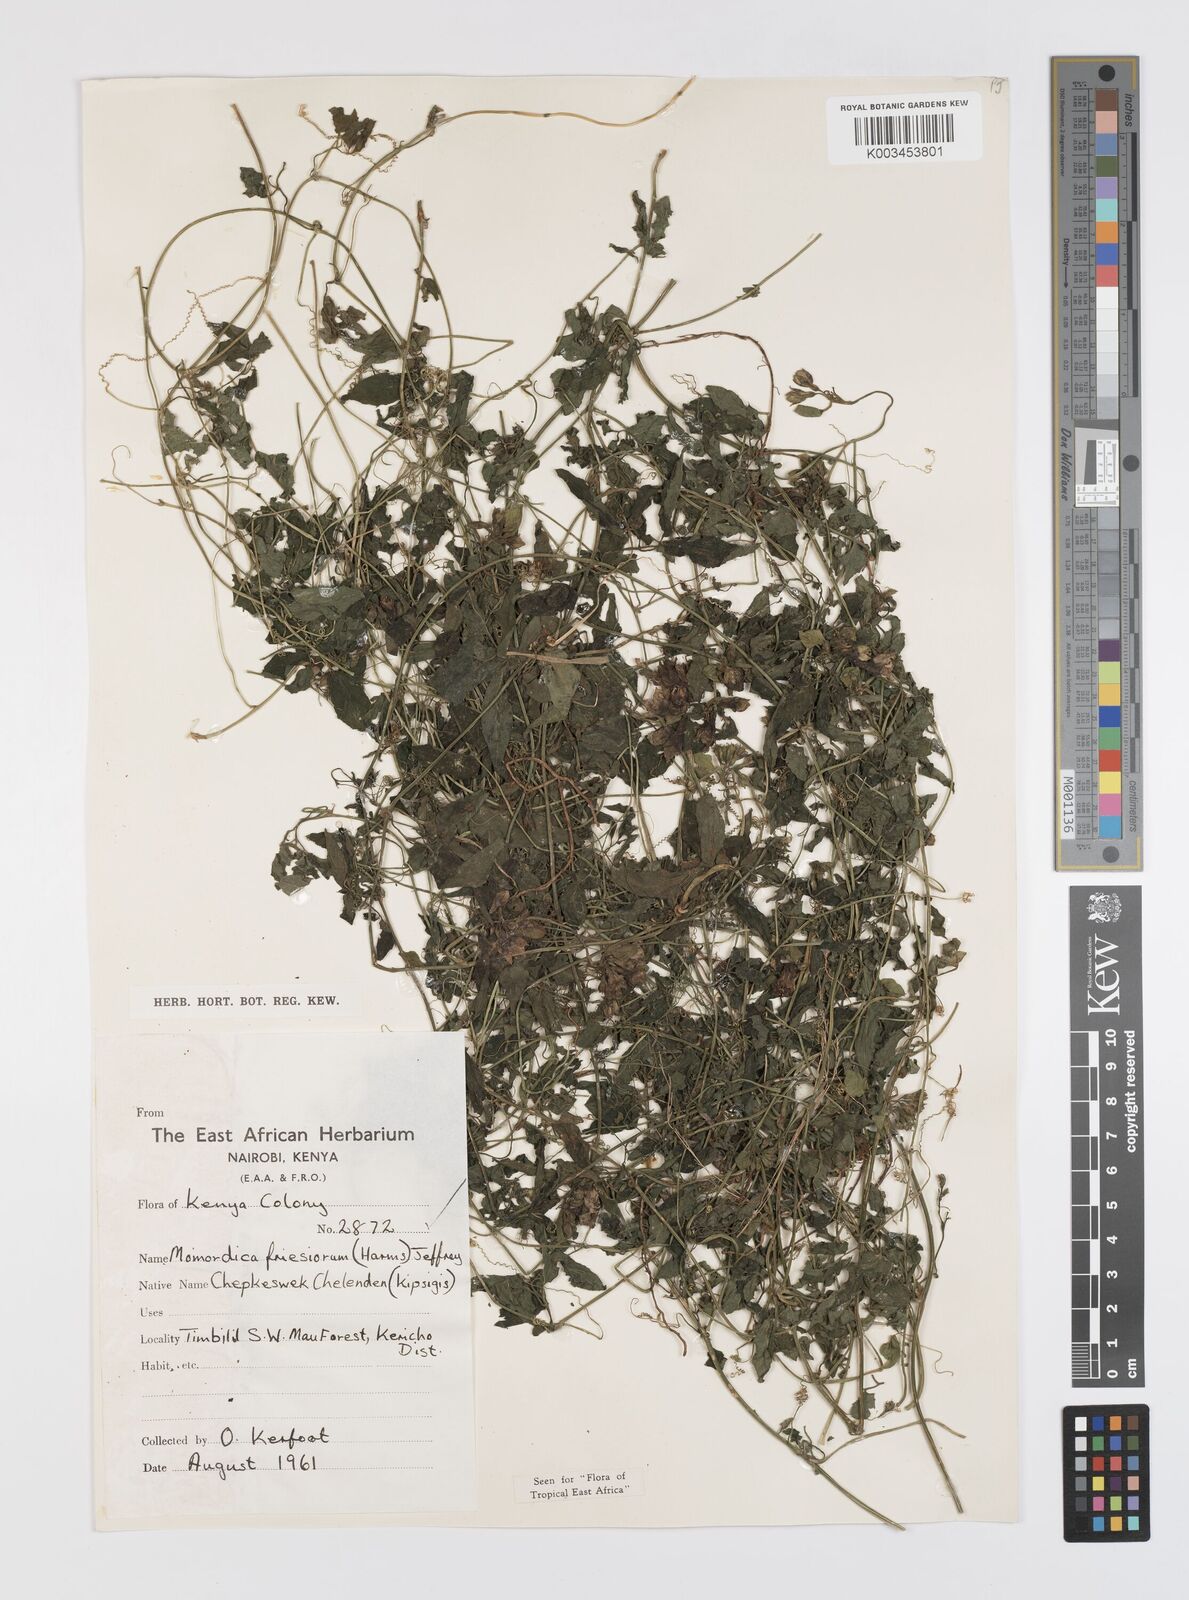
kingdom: Plantae
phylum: Tracheophyta
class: Magnoliopsida
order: Cucurbitales
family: Cucurbitaceae
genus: Momordica
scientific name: Momordica friesiorum
